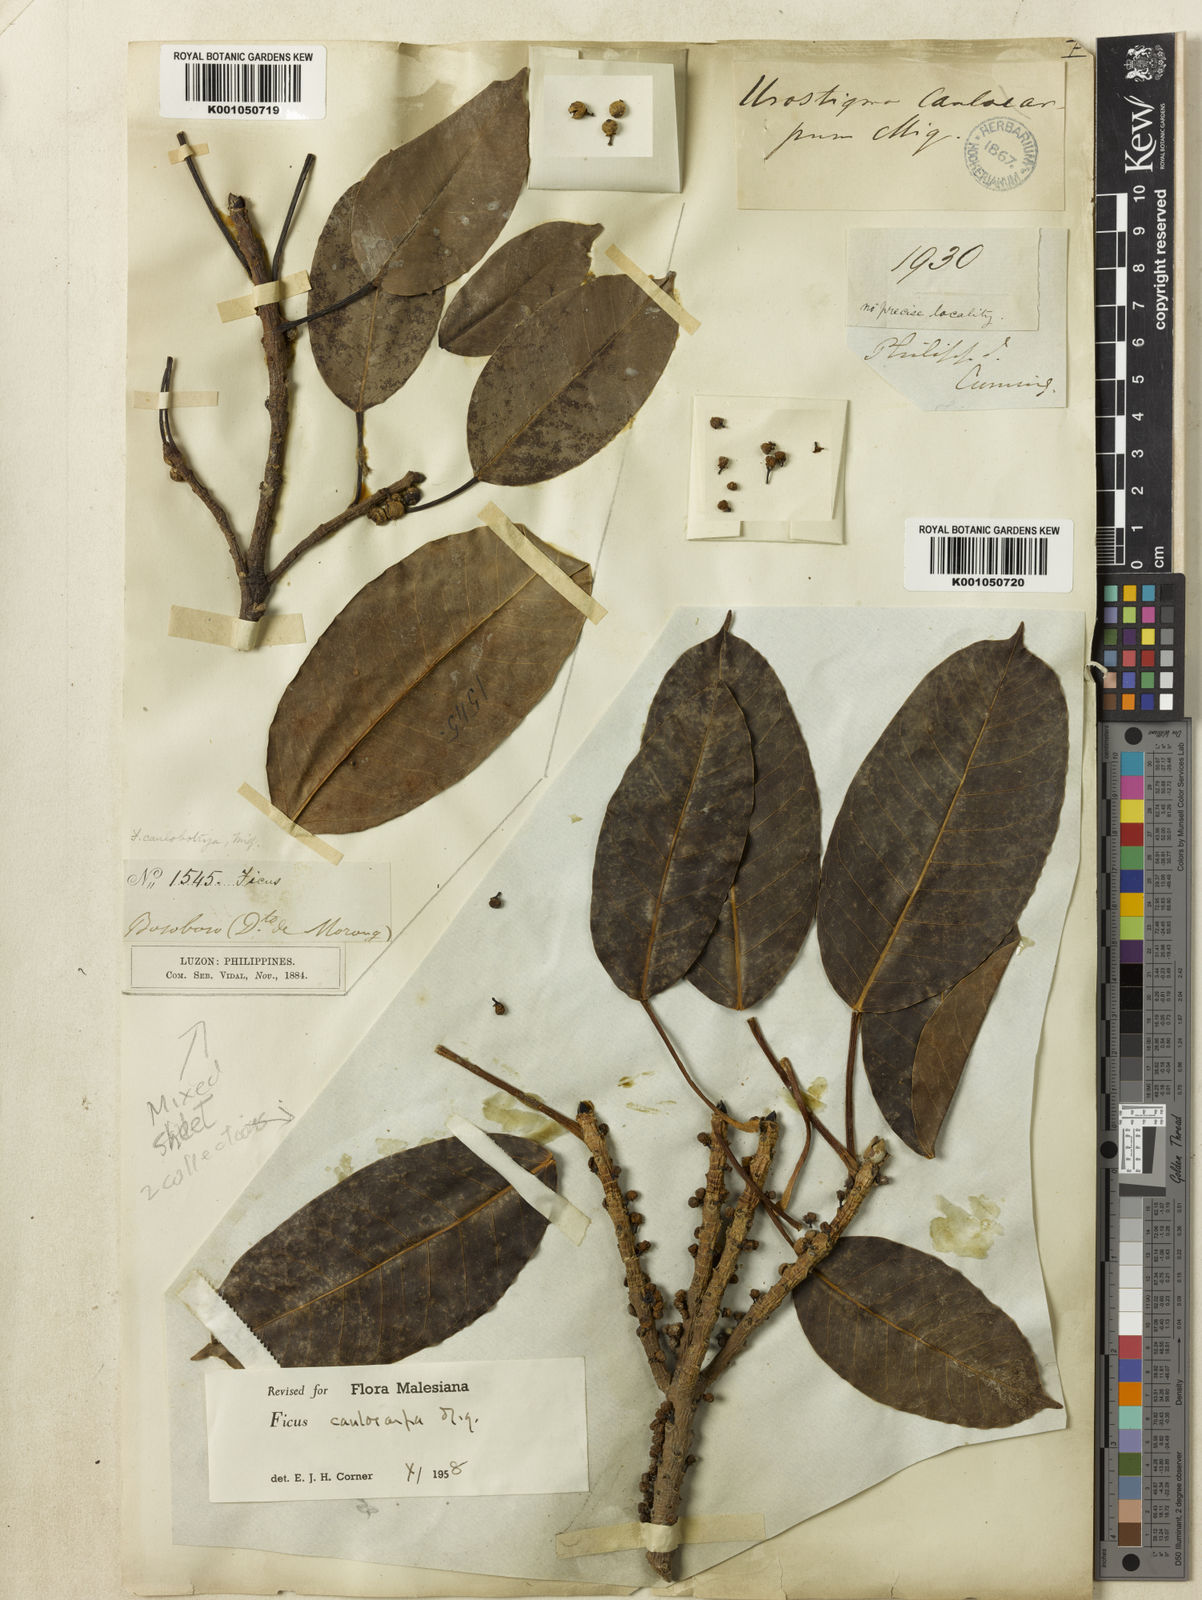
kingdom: Plantae
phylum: Tracheophyta
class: Magnoliopsida
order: Rosales
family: Moraceae
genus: Ficus
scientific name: Ficus caulocarpa
